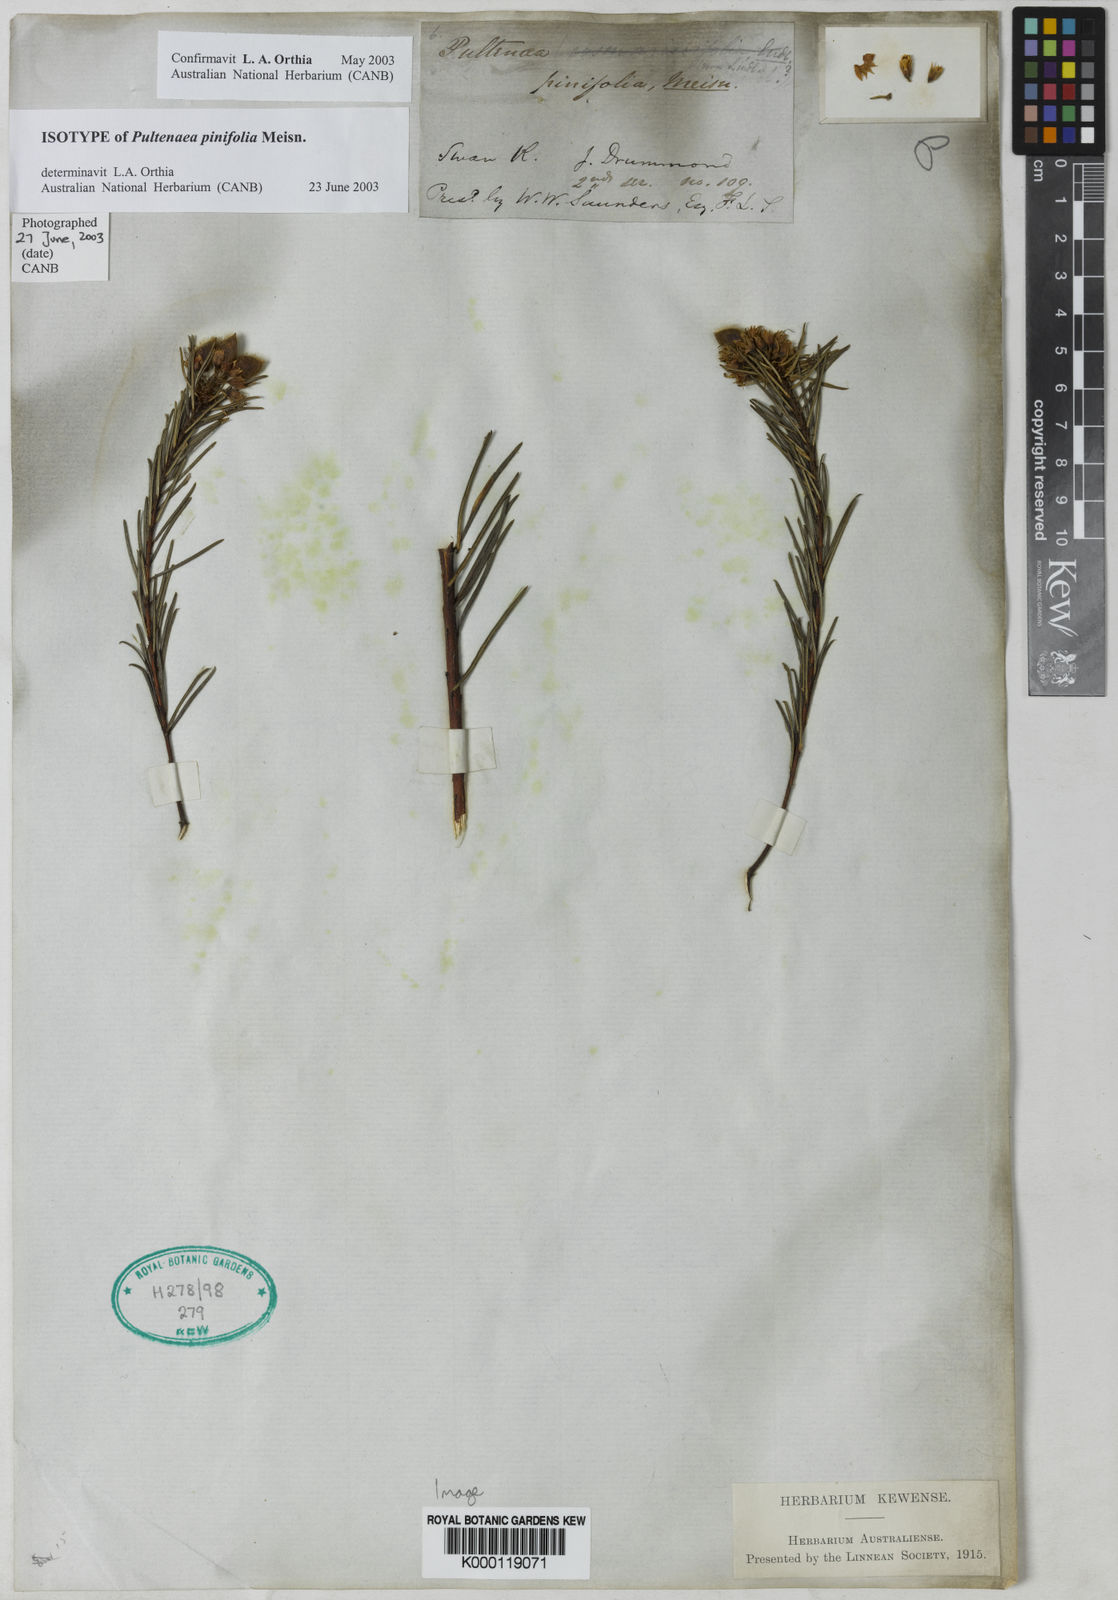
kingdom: Plantae
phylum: Tracheophyta
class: Magnoliopsida
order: Fabales
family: Fabaceae
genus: Pultenaea
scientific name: Pultenaea pinifolia
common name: Tree pultenaea
